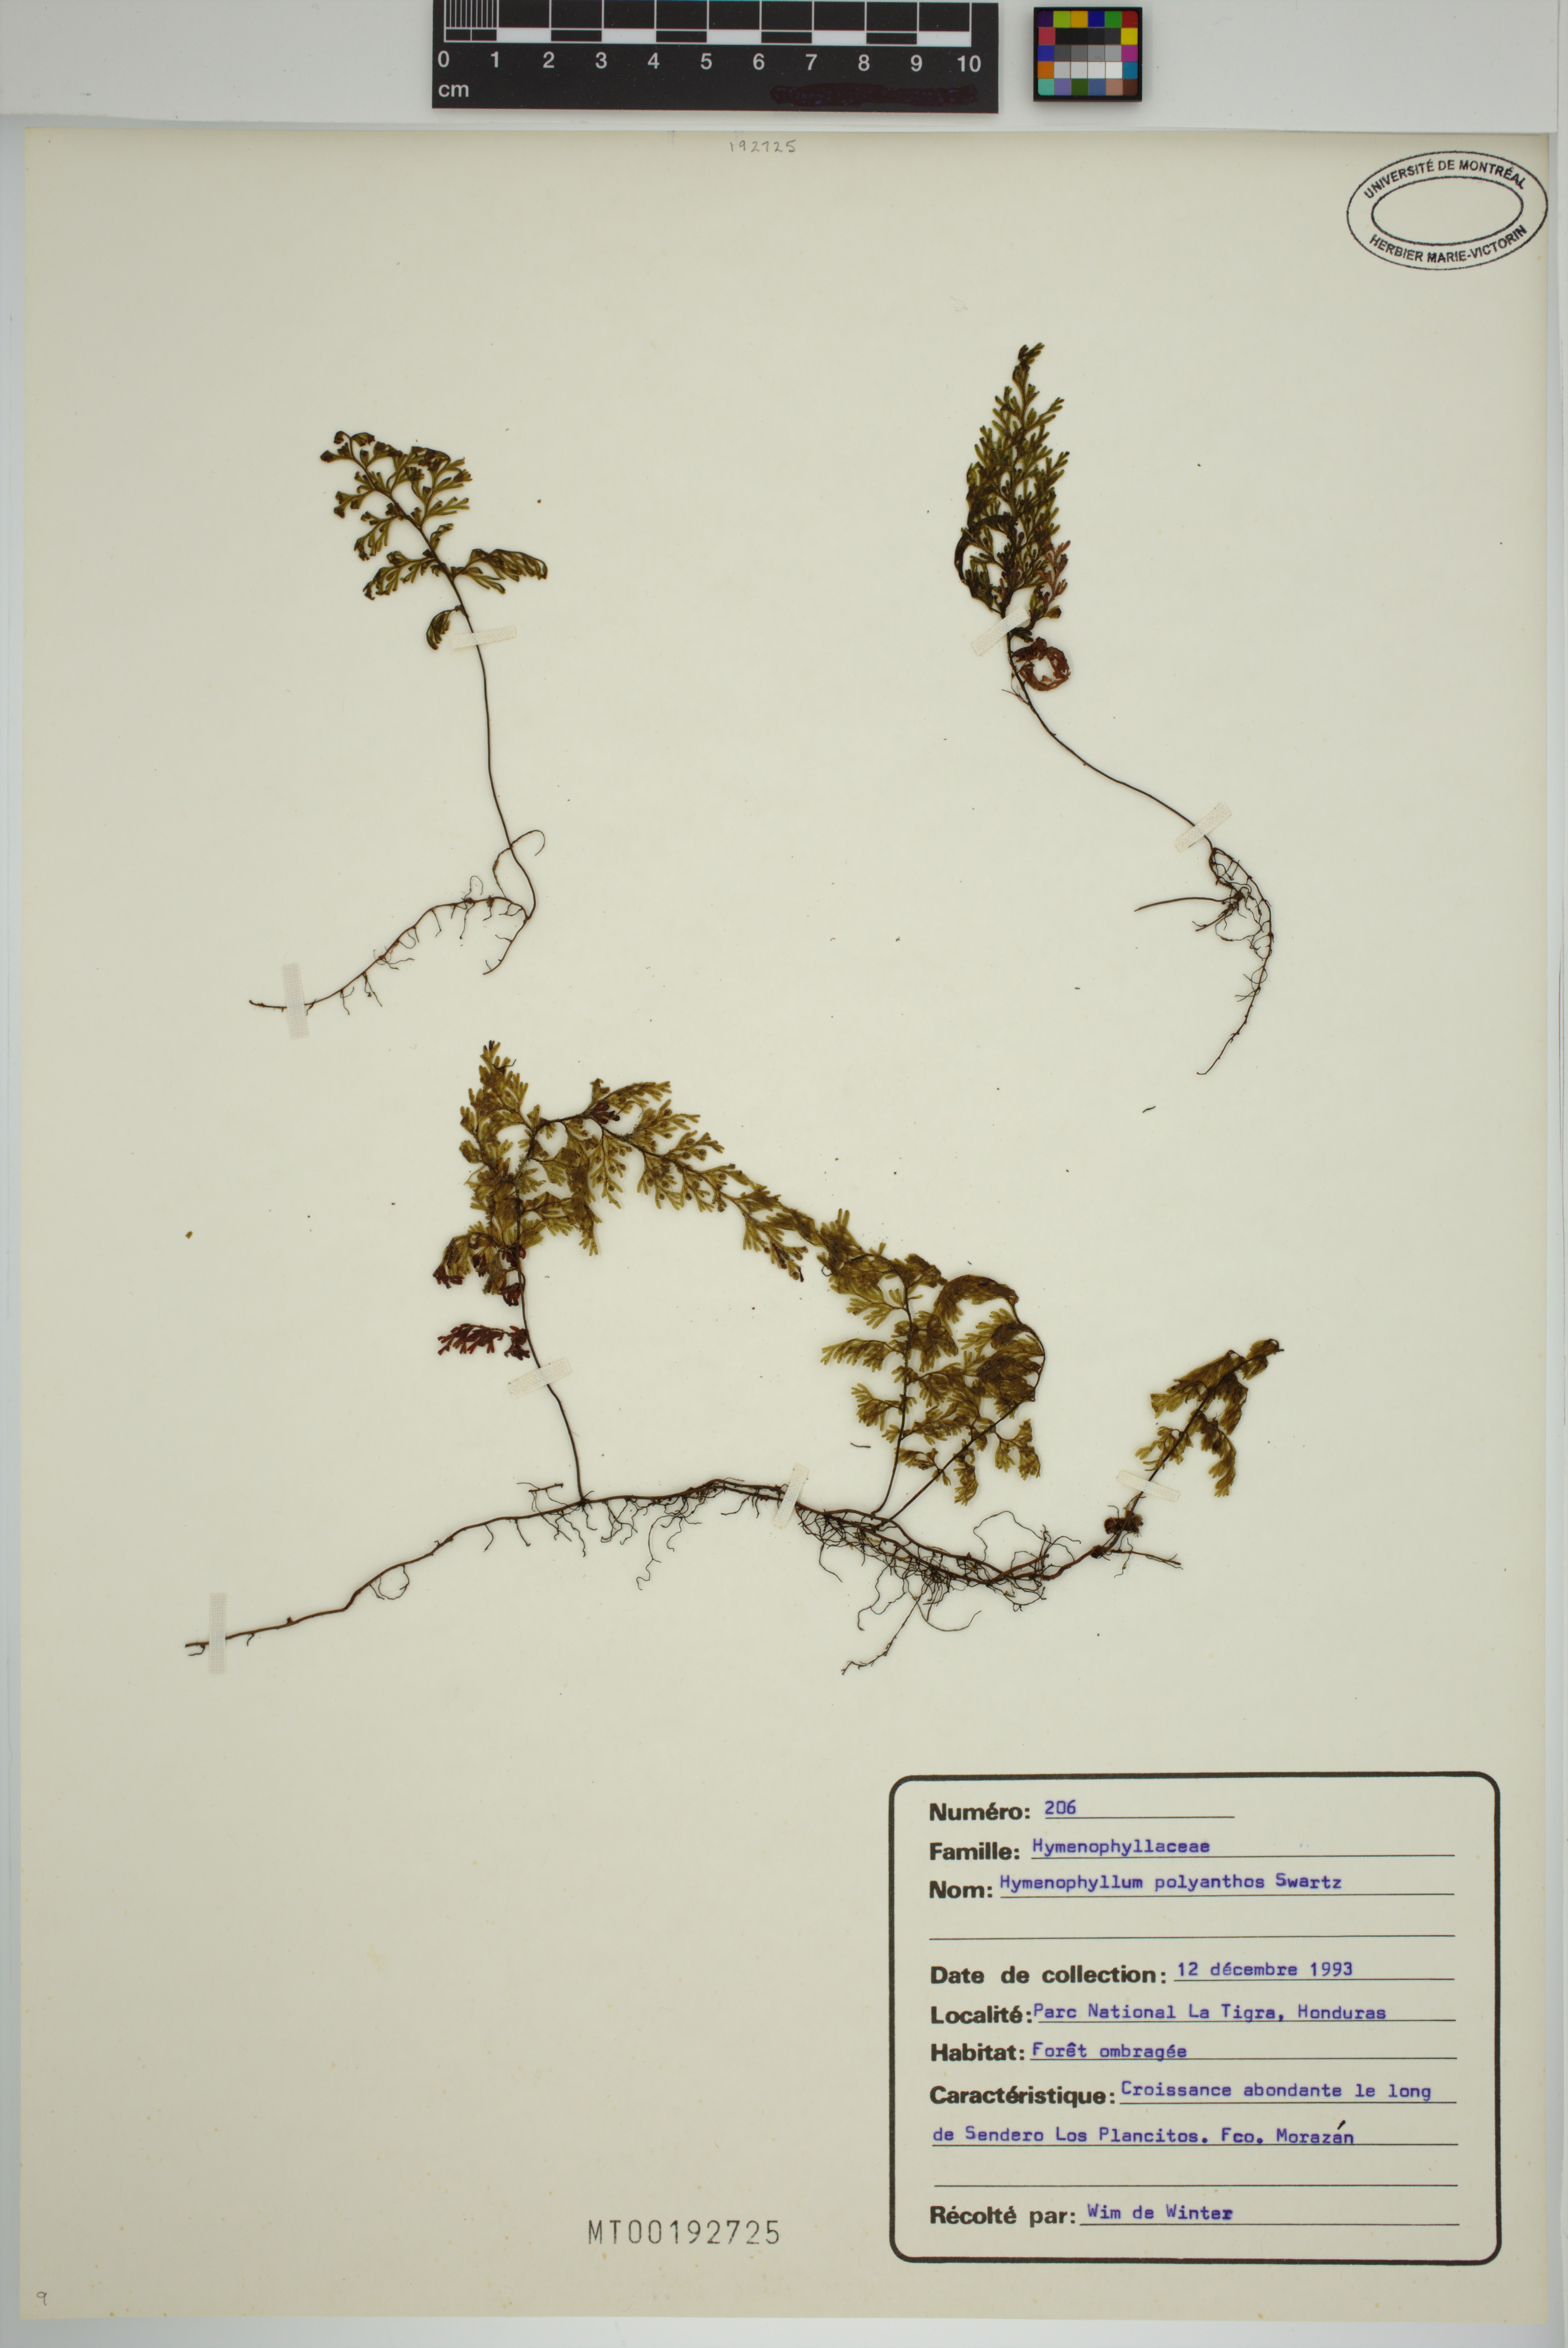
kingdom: Plantae
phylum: Tracheophyta
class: Polypodiopsida
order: Hymenophyllales
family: Hymenophyllaceae
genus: Hymenophyllum
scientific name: Hymenophyllum polyanthos
